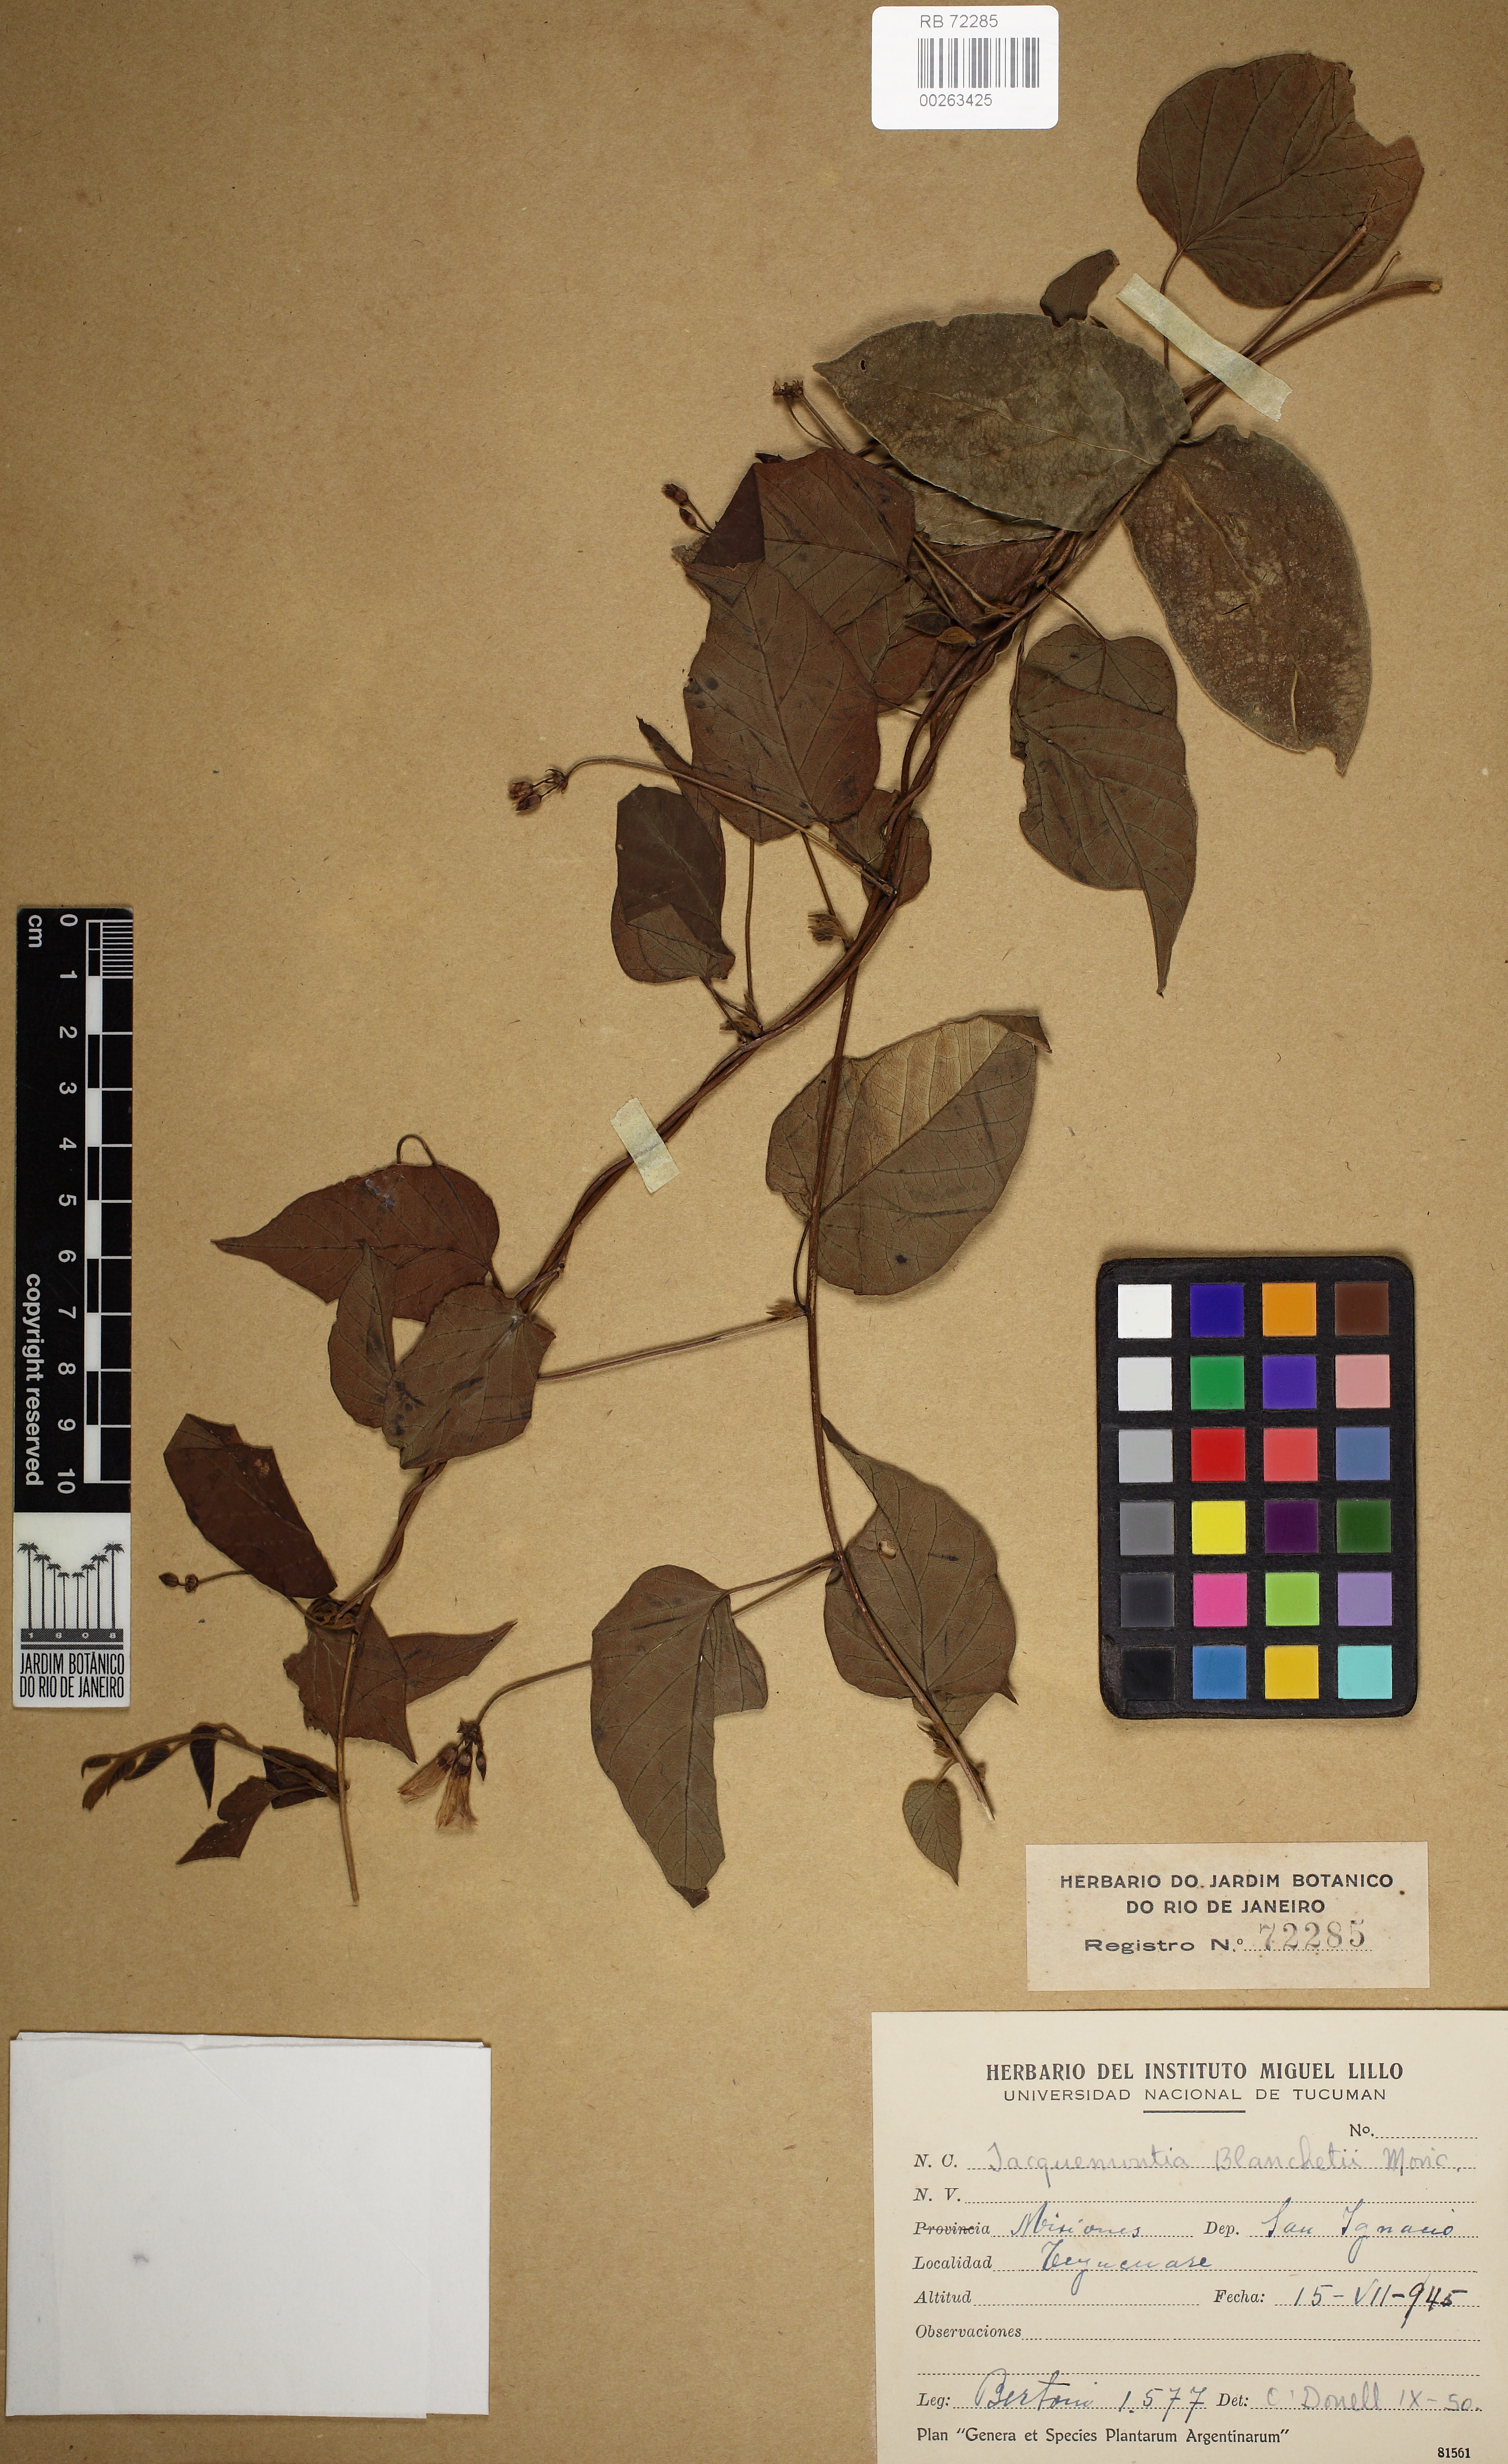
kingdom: Plantae
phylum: Tracheophyta
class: Magnoliopsida
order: Solanales
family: Convolvulaceae
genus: Jacquemontia
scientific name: Jacquemontia blanchetii
